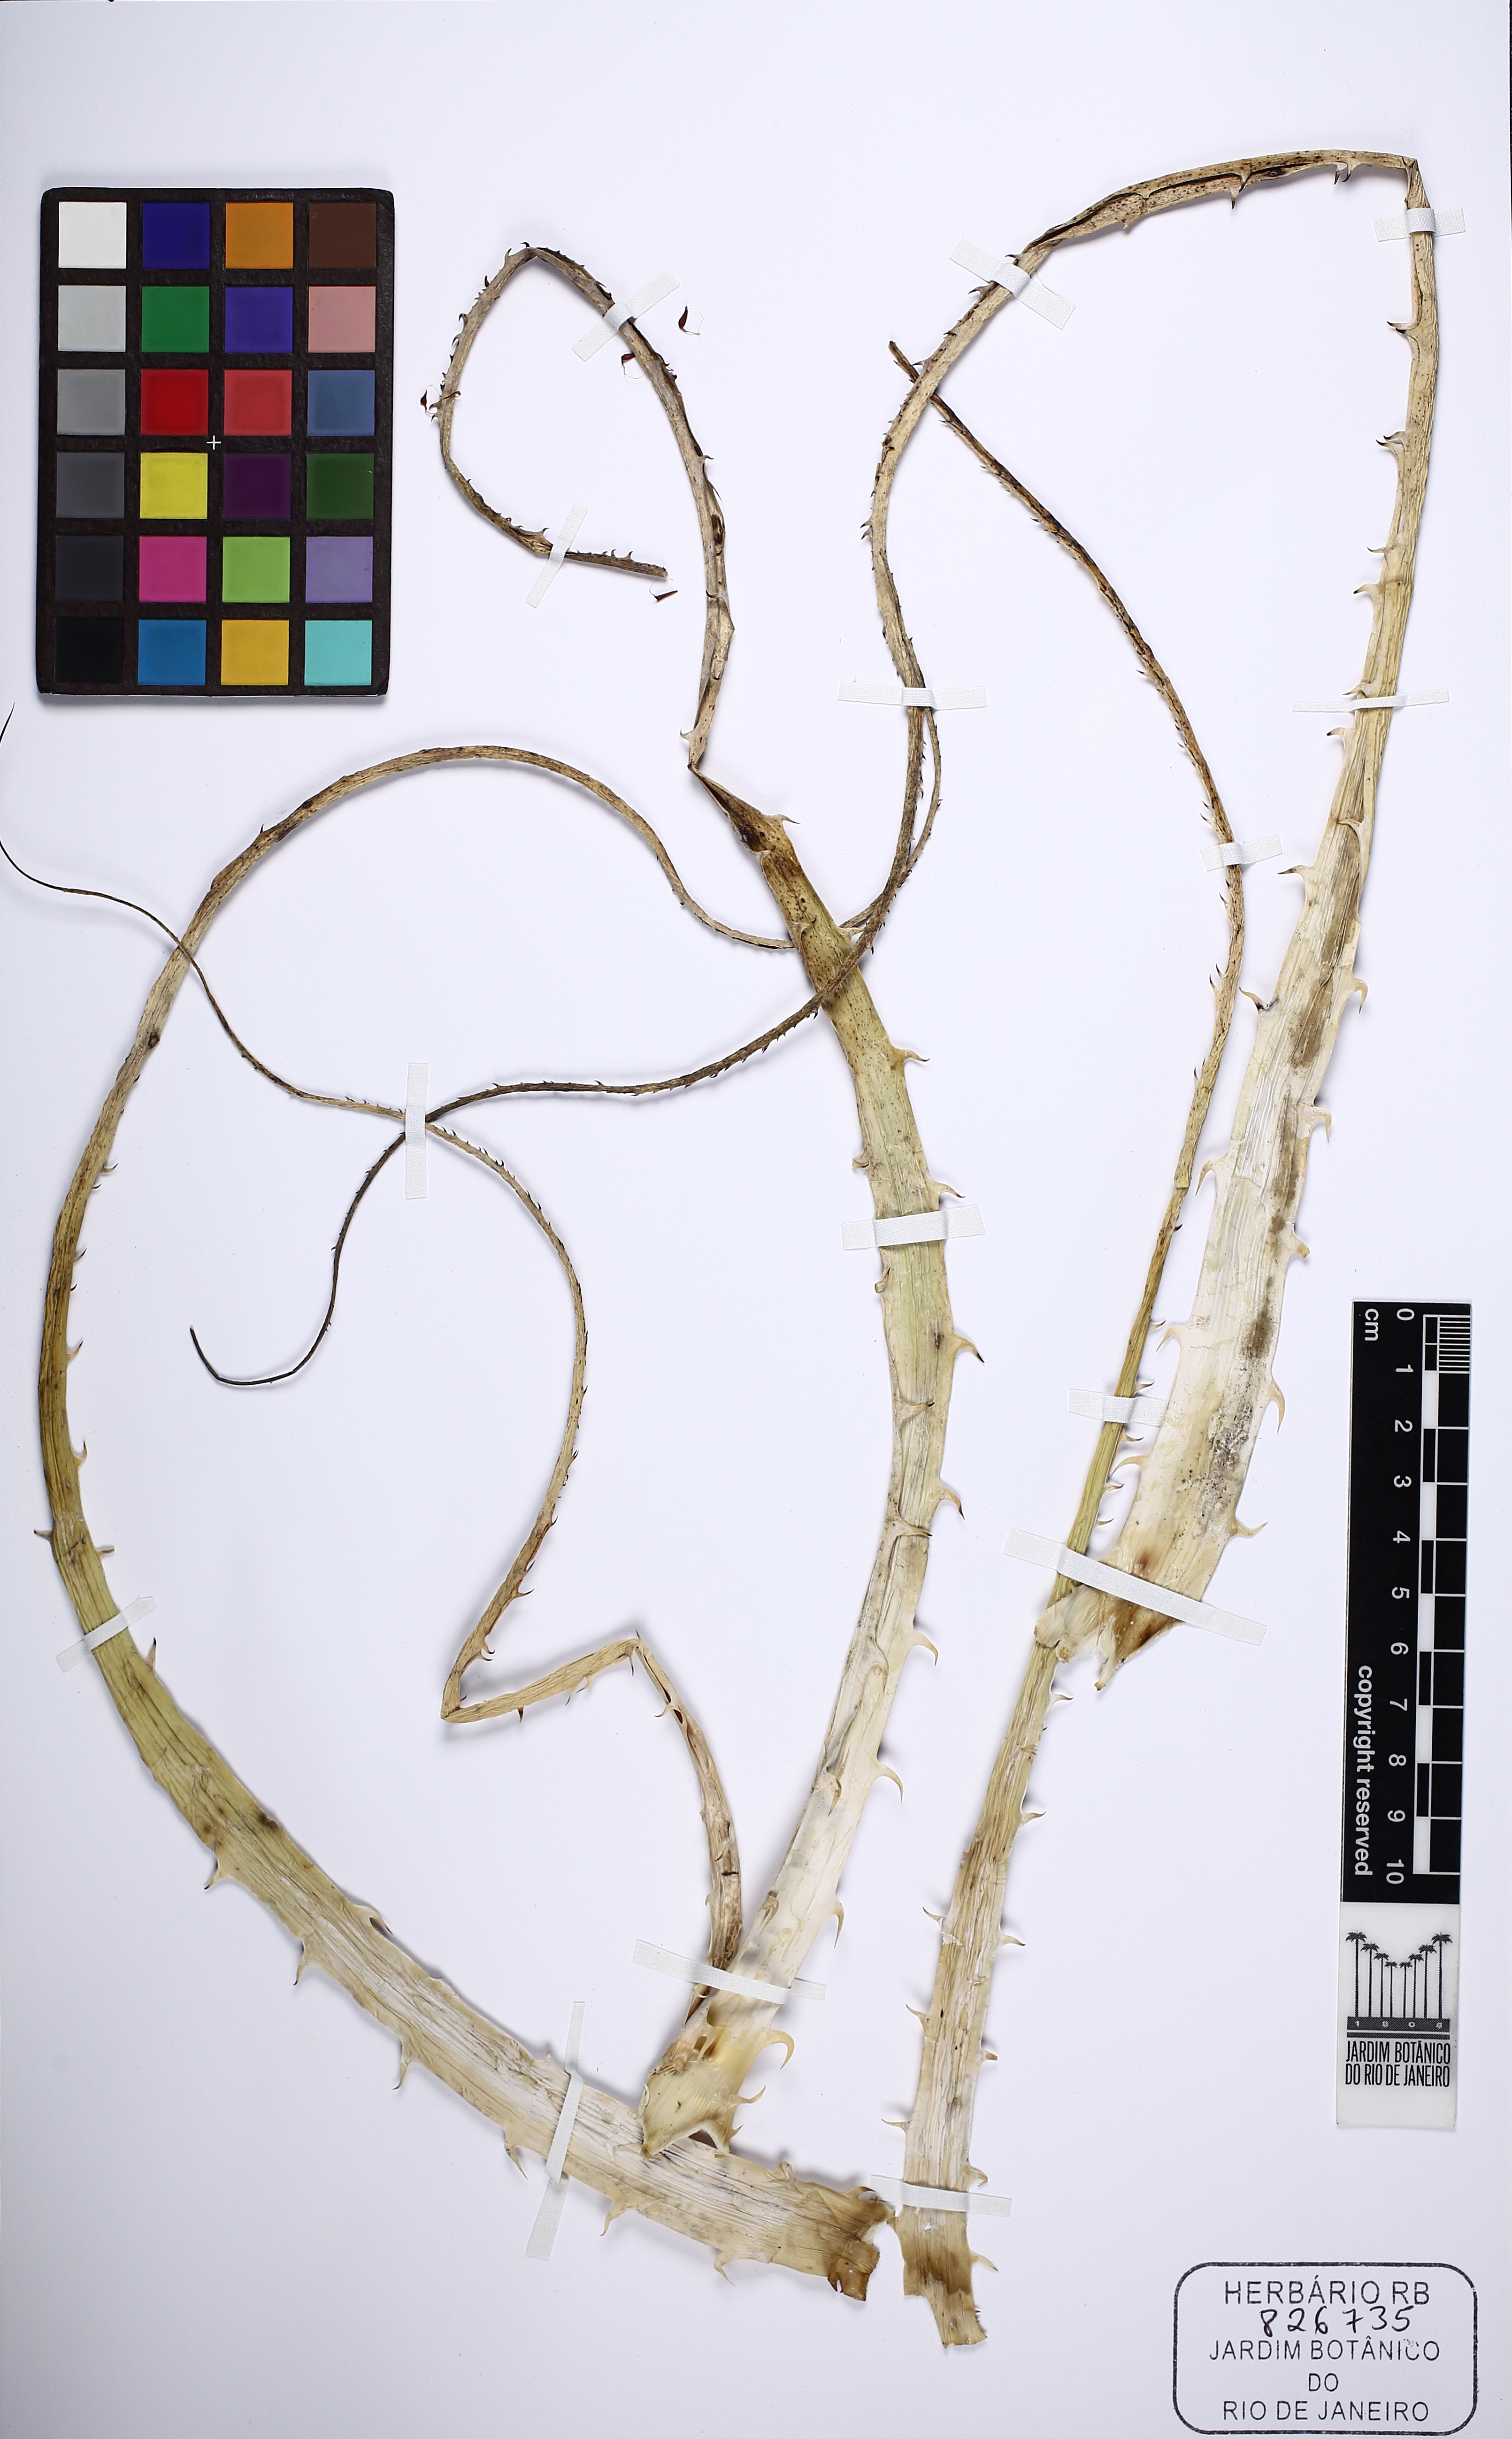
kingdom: Plantae
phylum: Tracheophyta
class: Liliopsida
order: Poales
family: Bromeliaceae
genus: Encholirium
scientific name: Encholirium horridum
